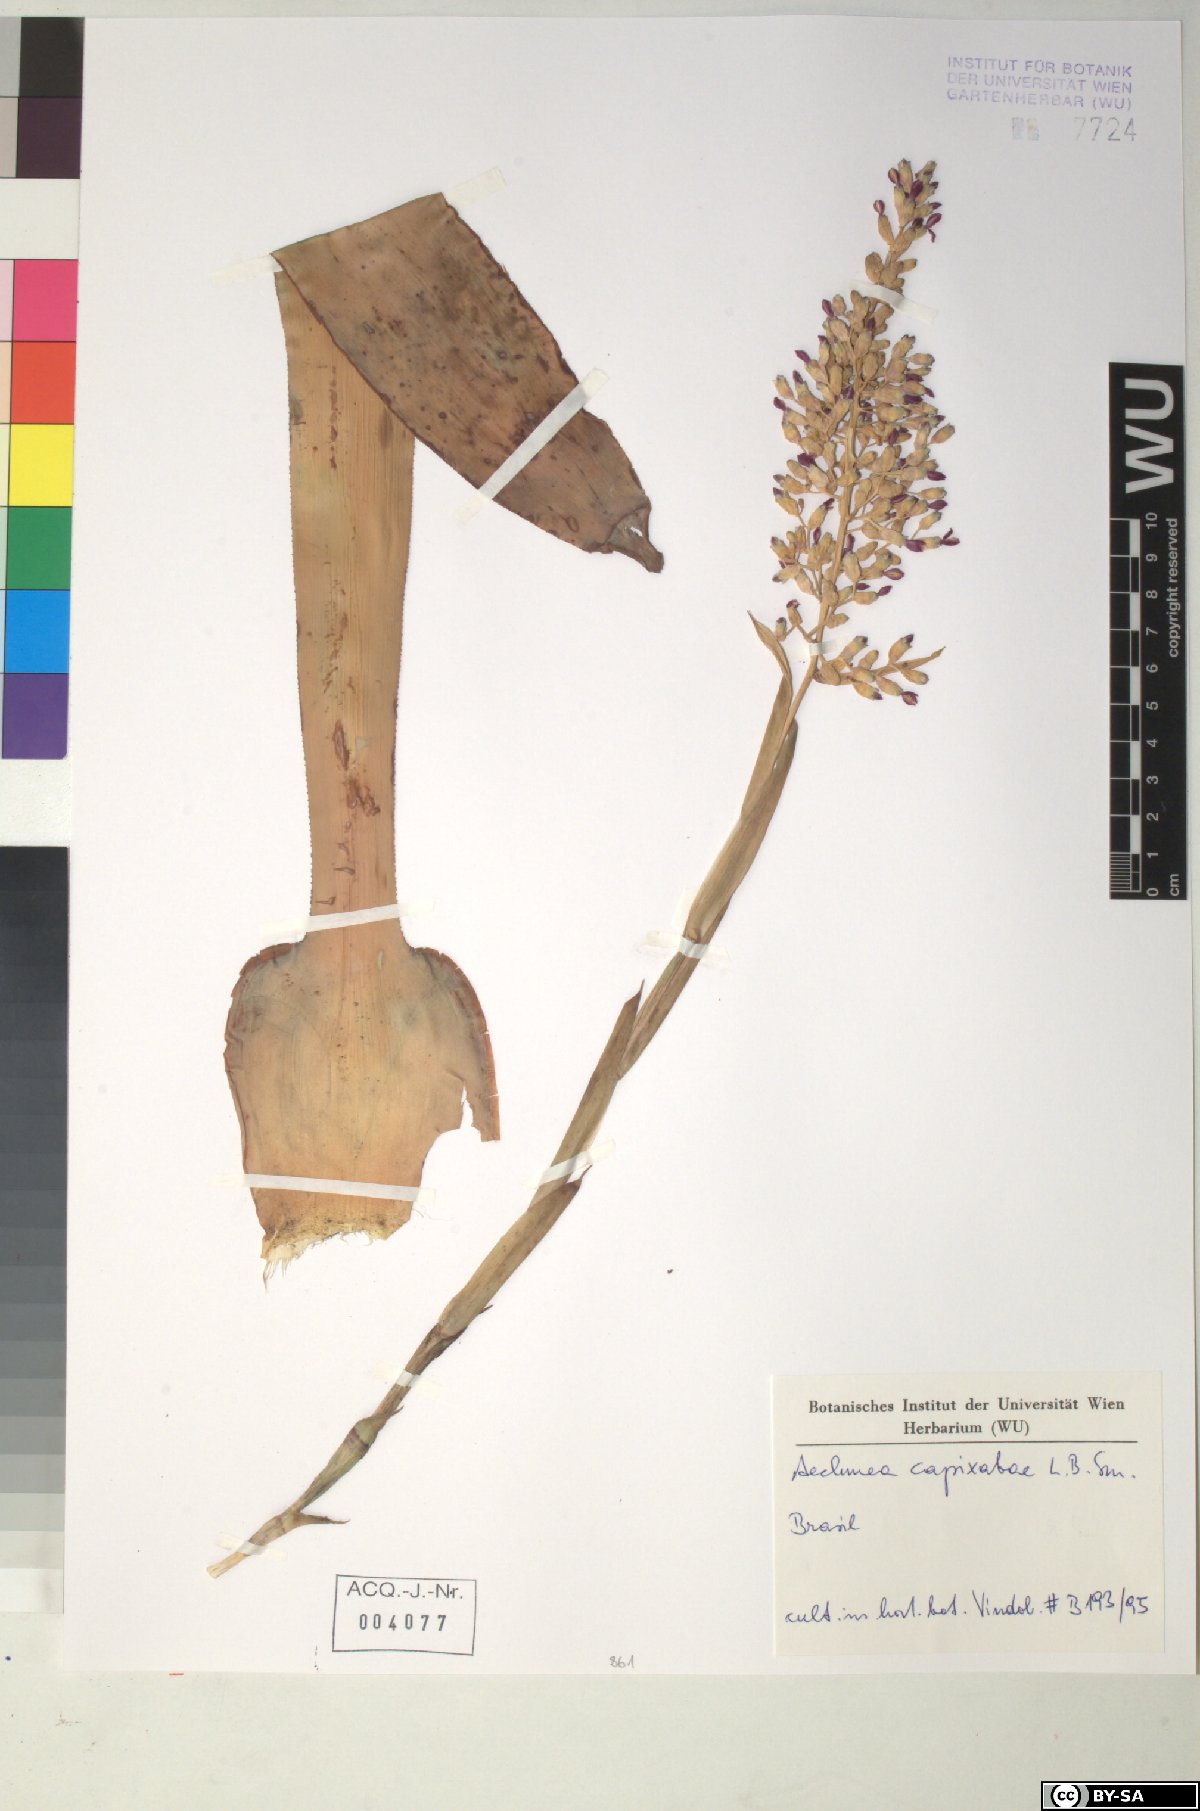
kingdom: Plantae
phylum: Tracheophyta
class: Liliopsida
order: Poales
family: Bromeliaceae
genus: Aechmea
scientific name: Aechmea
